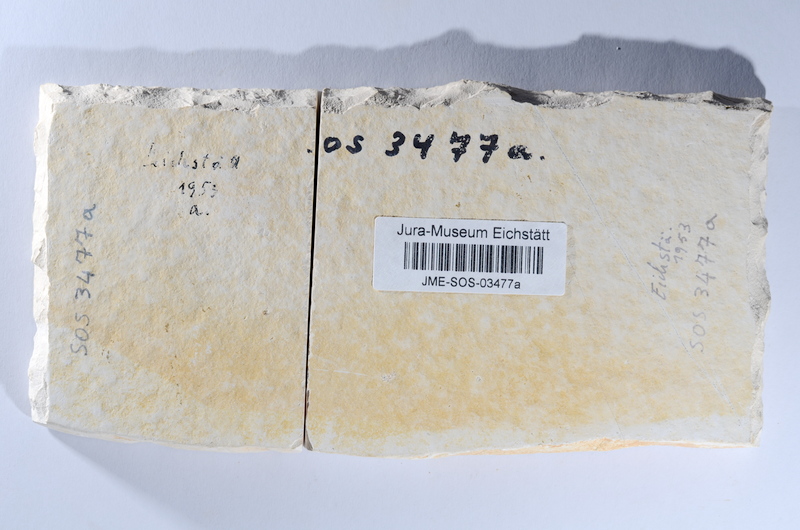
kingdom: Animalia
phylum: Chordata
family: Ascalaboidae
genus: Tharsis
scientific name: Tharsis dubius
